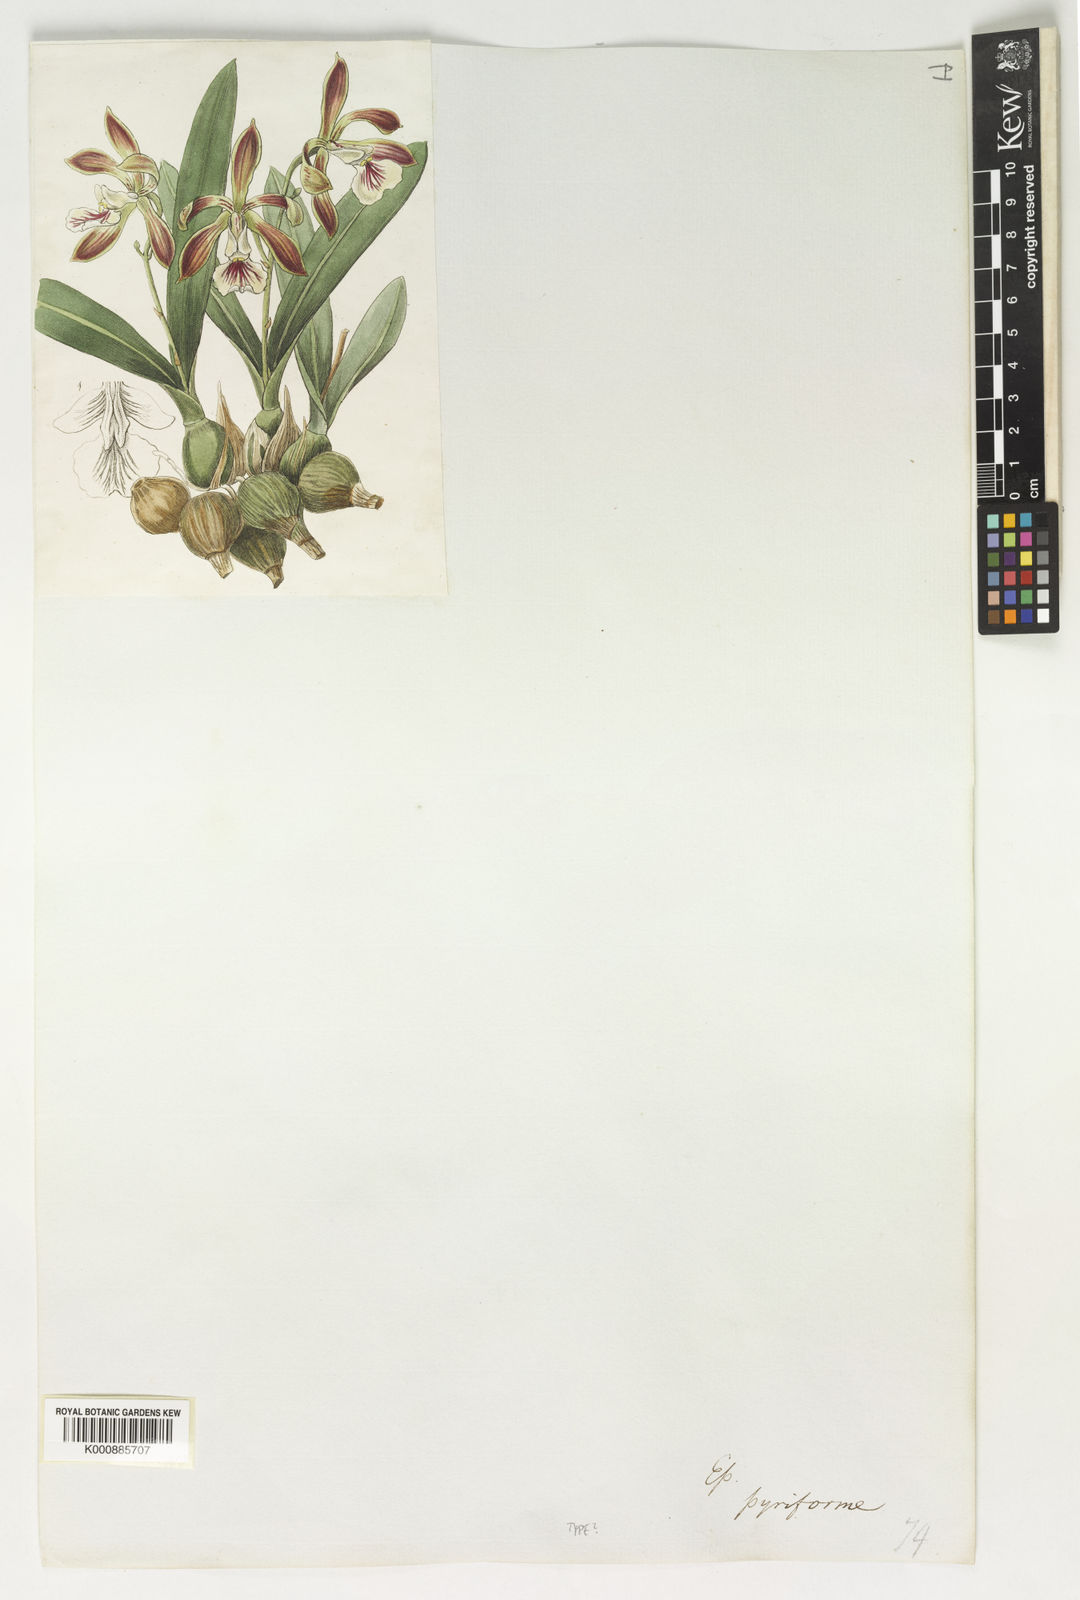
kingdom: Plantae
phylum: Tracheophyta
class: Liliopsida
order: Asparagales
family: Orchidaceae
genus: Encyclia
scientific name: Encyclia pyriformis
